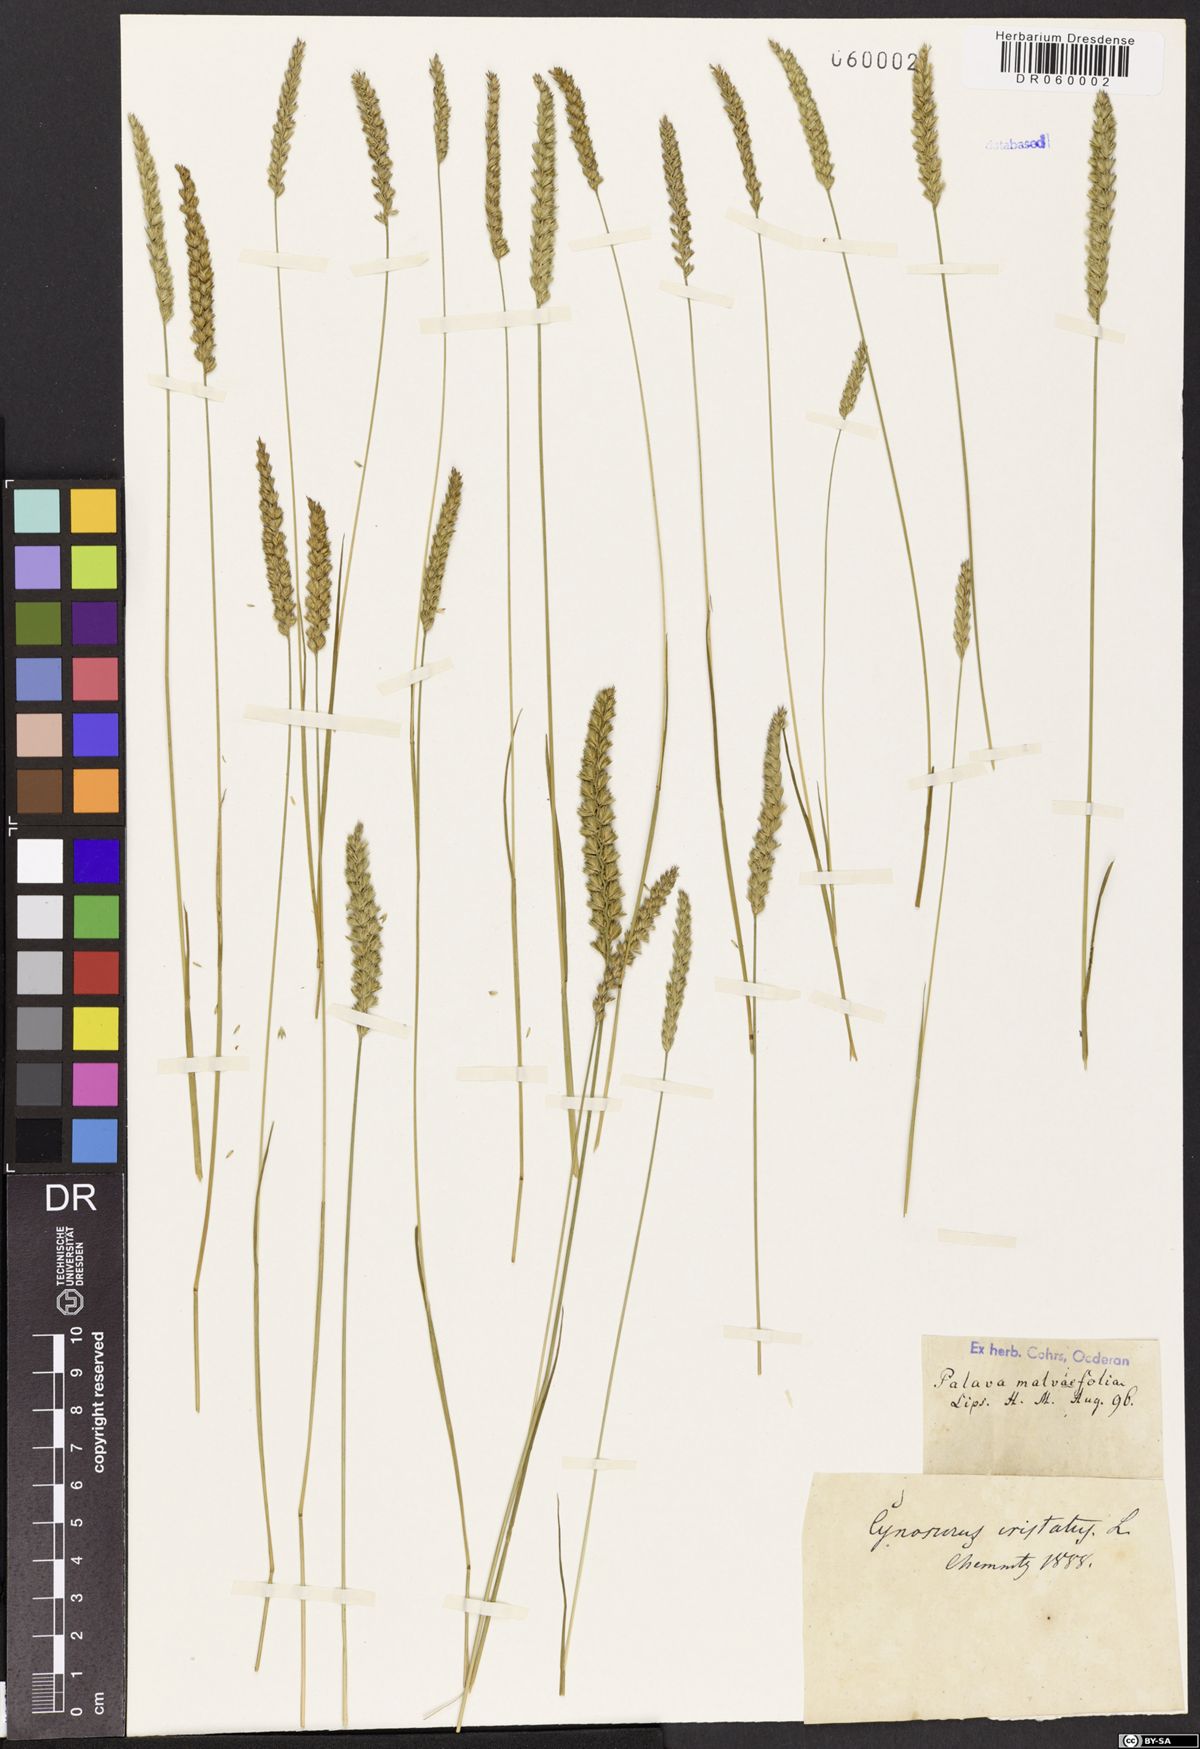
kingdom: Plantae
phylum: Tracheophyta
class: Liliopsida
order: Poales
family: Poaceae
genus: Cynosurus
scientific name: Cynosurus cristatus
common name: Crested dog's-tail
